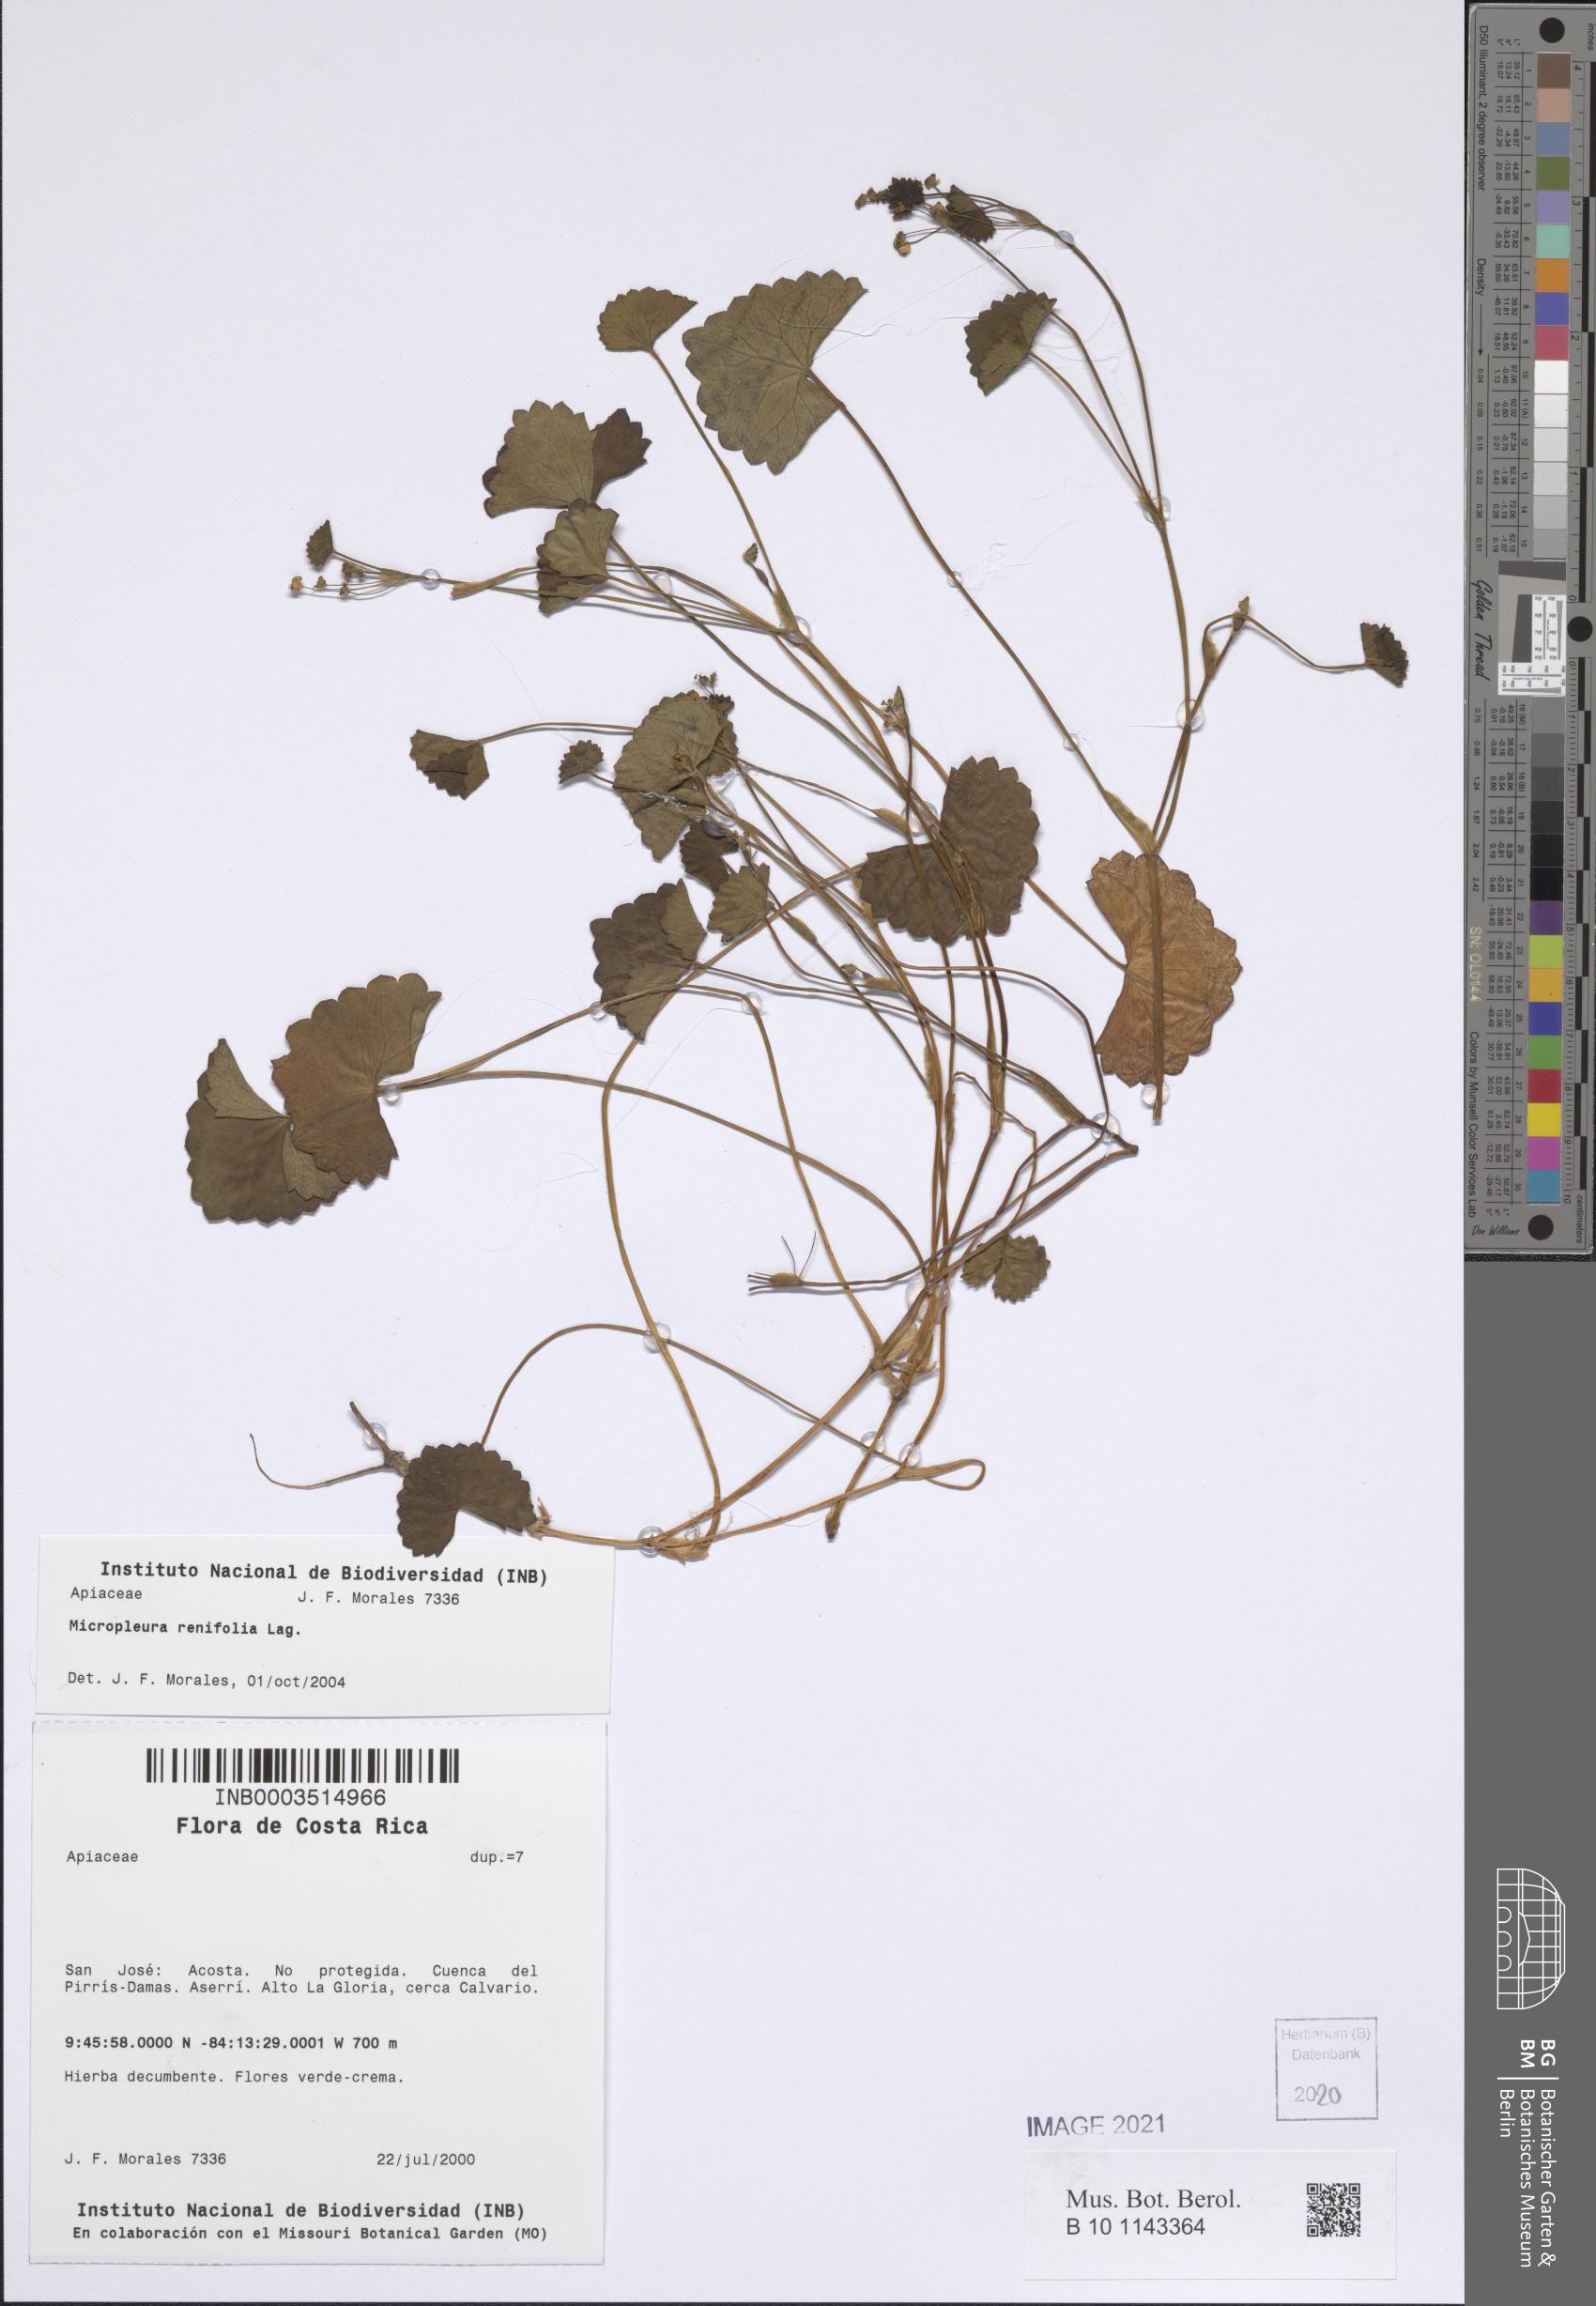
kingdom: Plantae
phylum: Tracheophyta
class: Magnoliopsida
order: Apiales
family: Apiaceae
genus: Micropleura
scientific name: Micropleura renifolia
